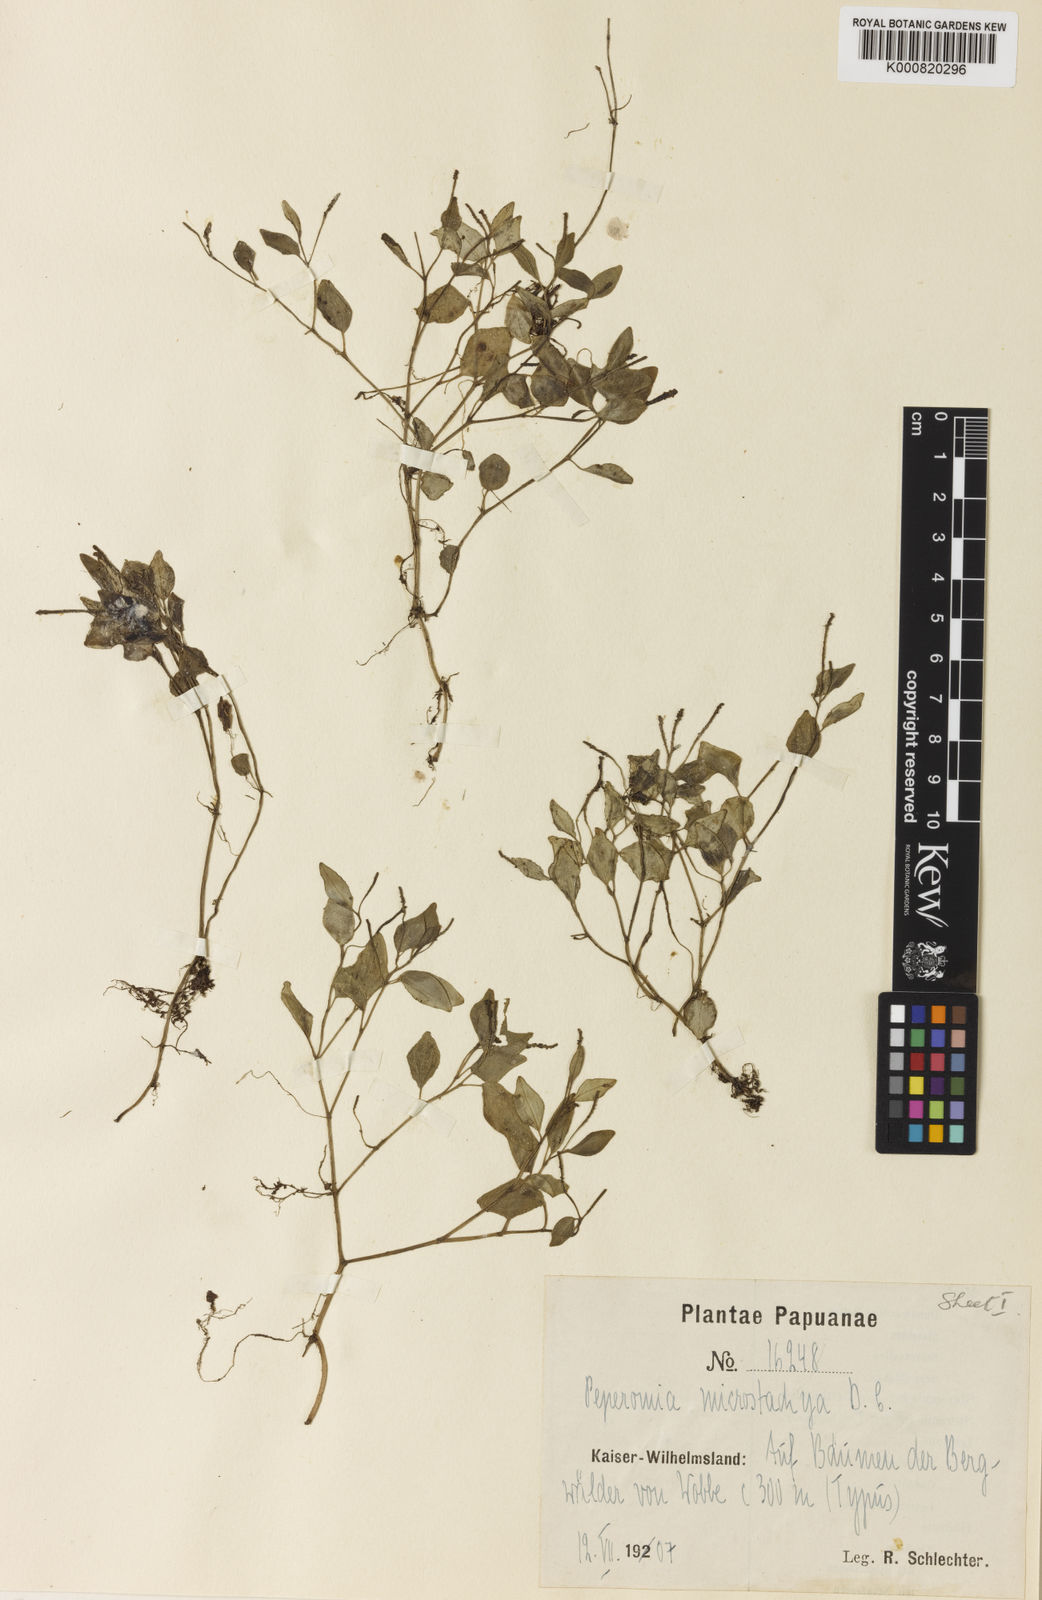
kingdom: Plantae
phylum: Tracheophyta
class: Magnoliopsida
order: Piperales
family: Piperaceae
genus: Peperomia
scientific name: Peperomia microstachya
